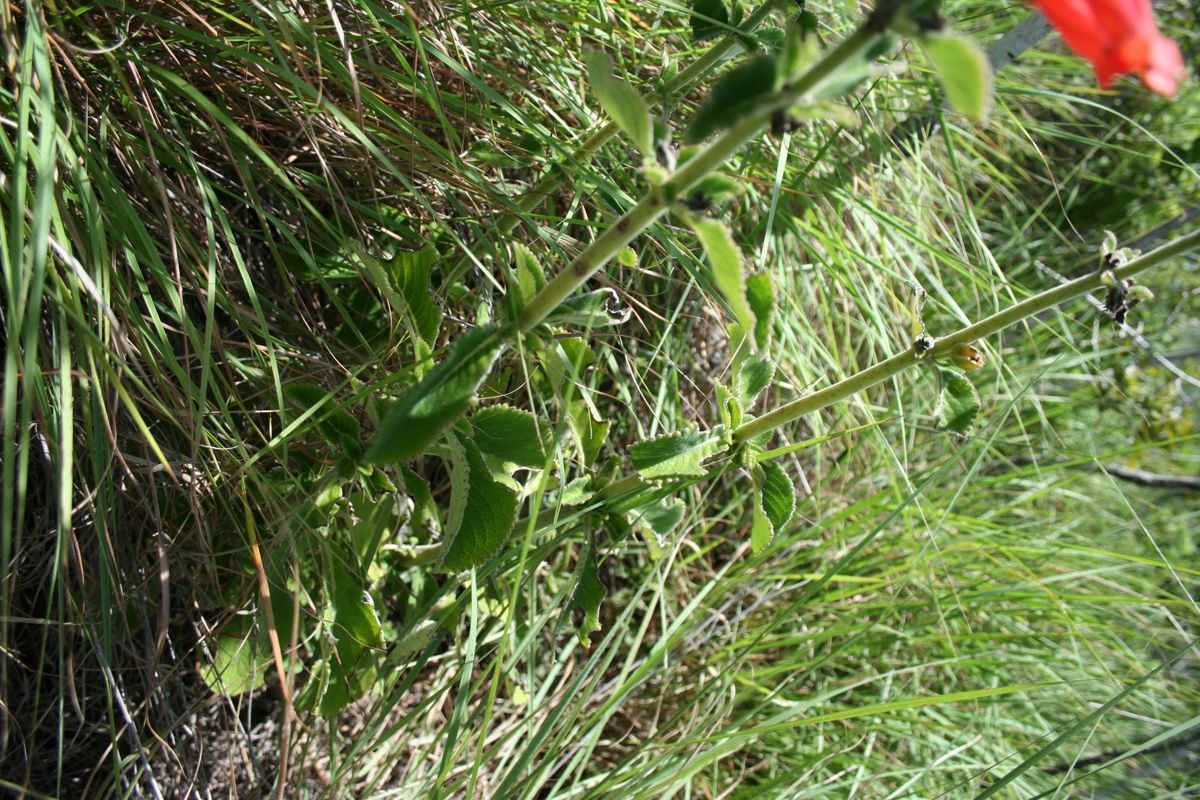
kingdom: Plantae
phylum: Tracheophyta
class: Magnoliopsida
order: Lamiales
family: Gesneriaceae
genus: Sinningia
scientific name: Sinningia incarnata
